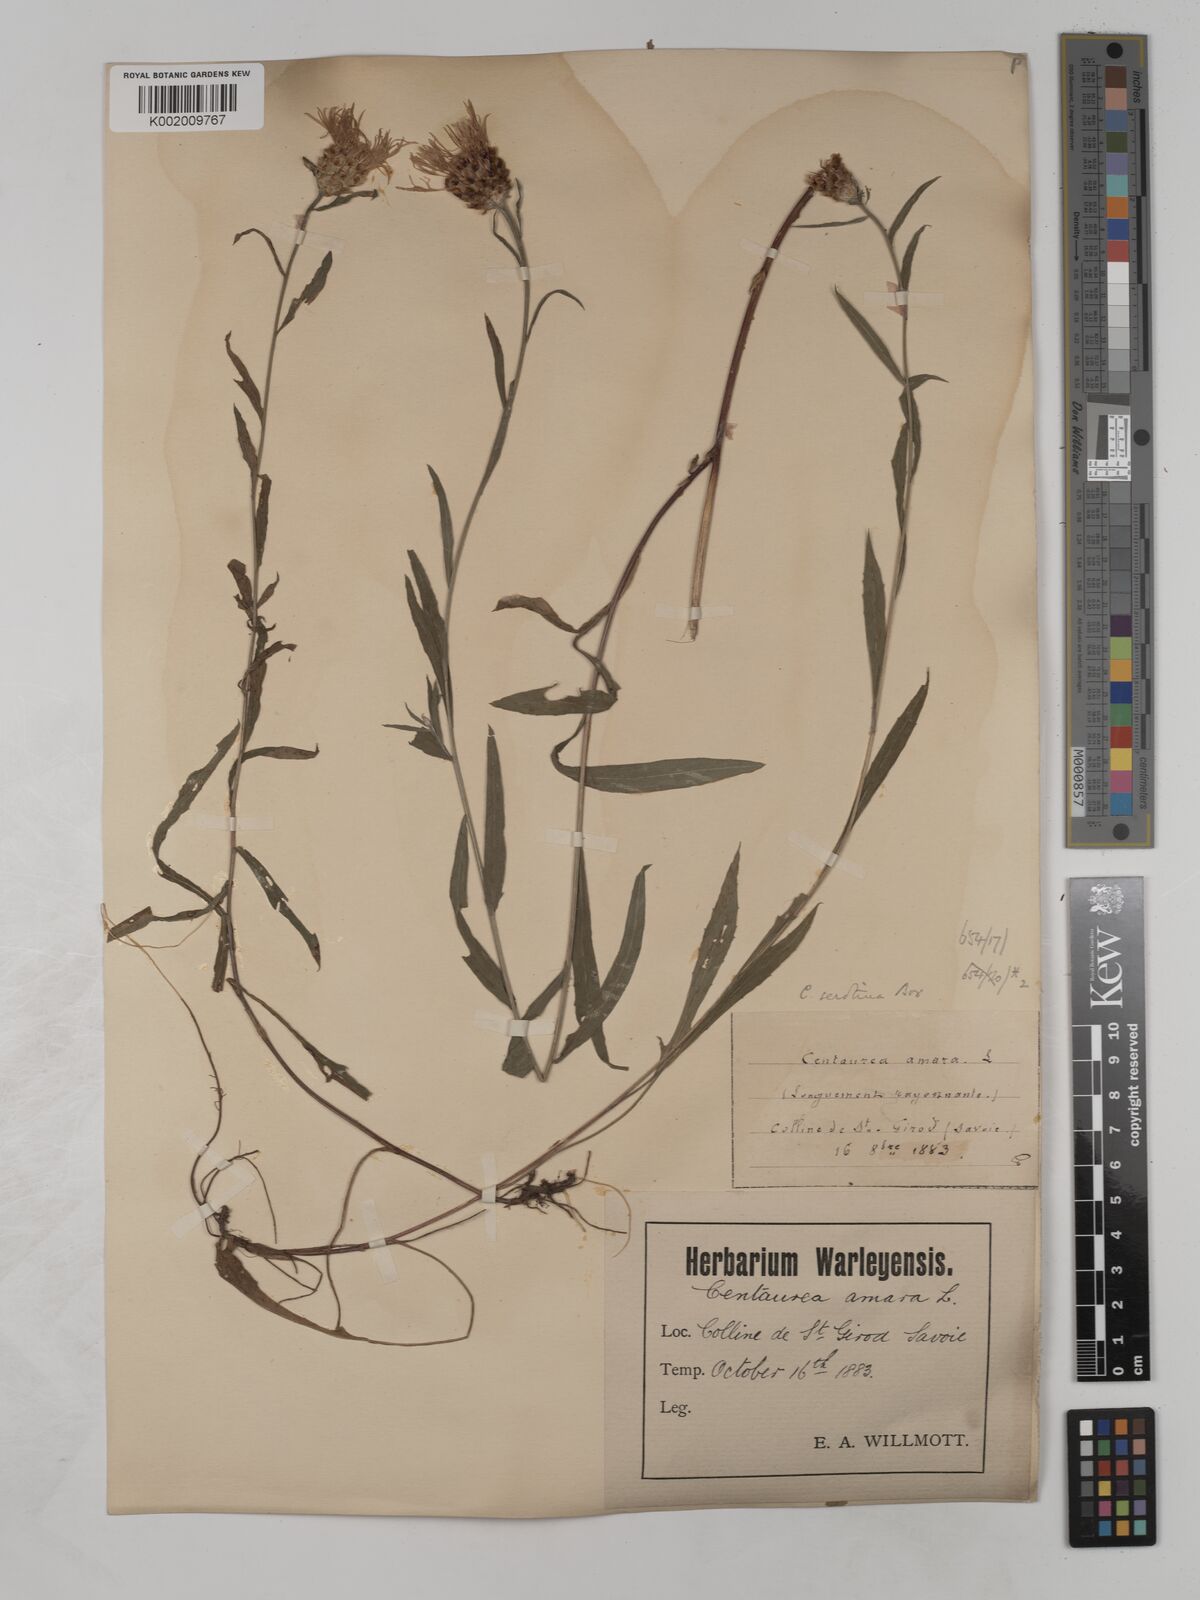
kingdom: Plantae
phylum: Tracheophyta
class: Magnoliopsida
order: Asterales
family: Asteraceae
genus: Centaurea
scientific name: Centaurea timbalii
